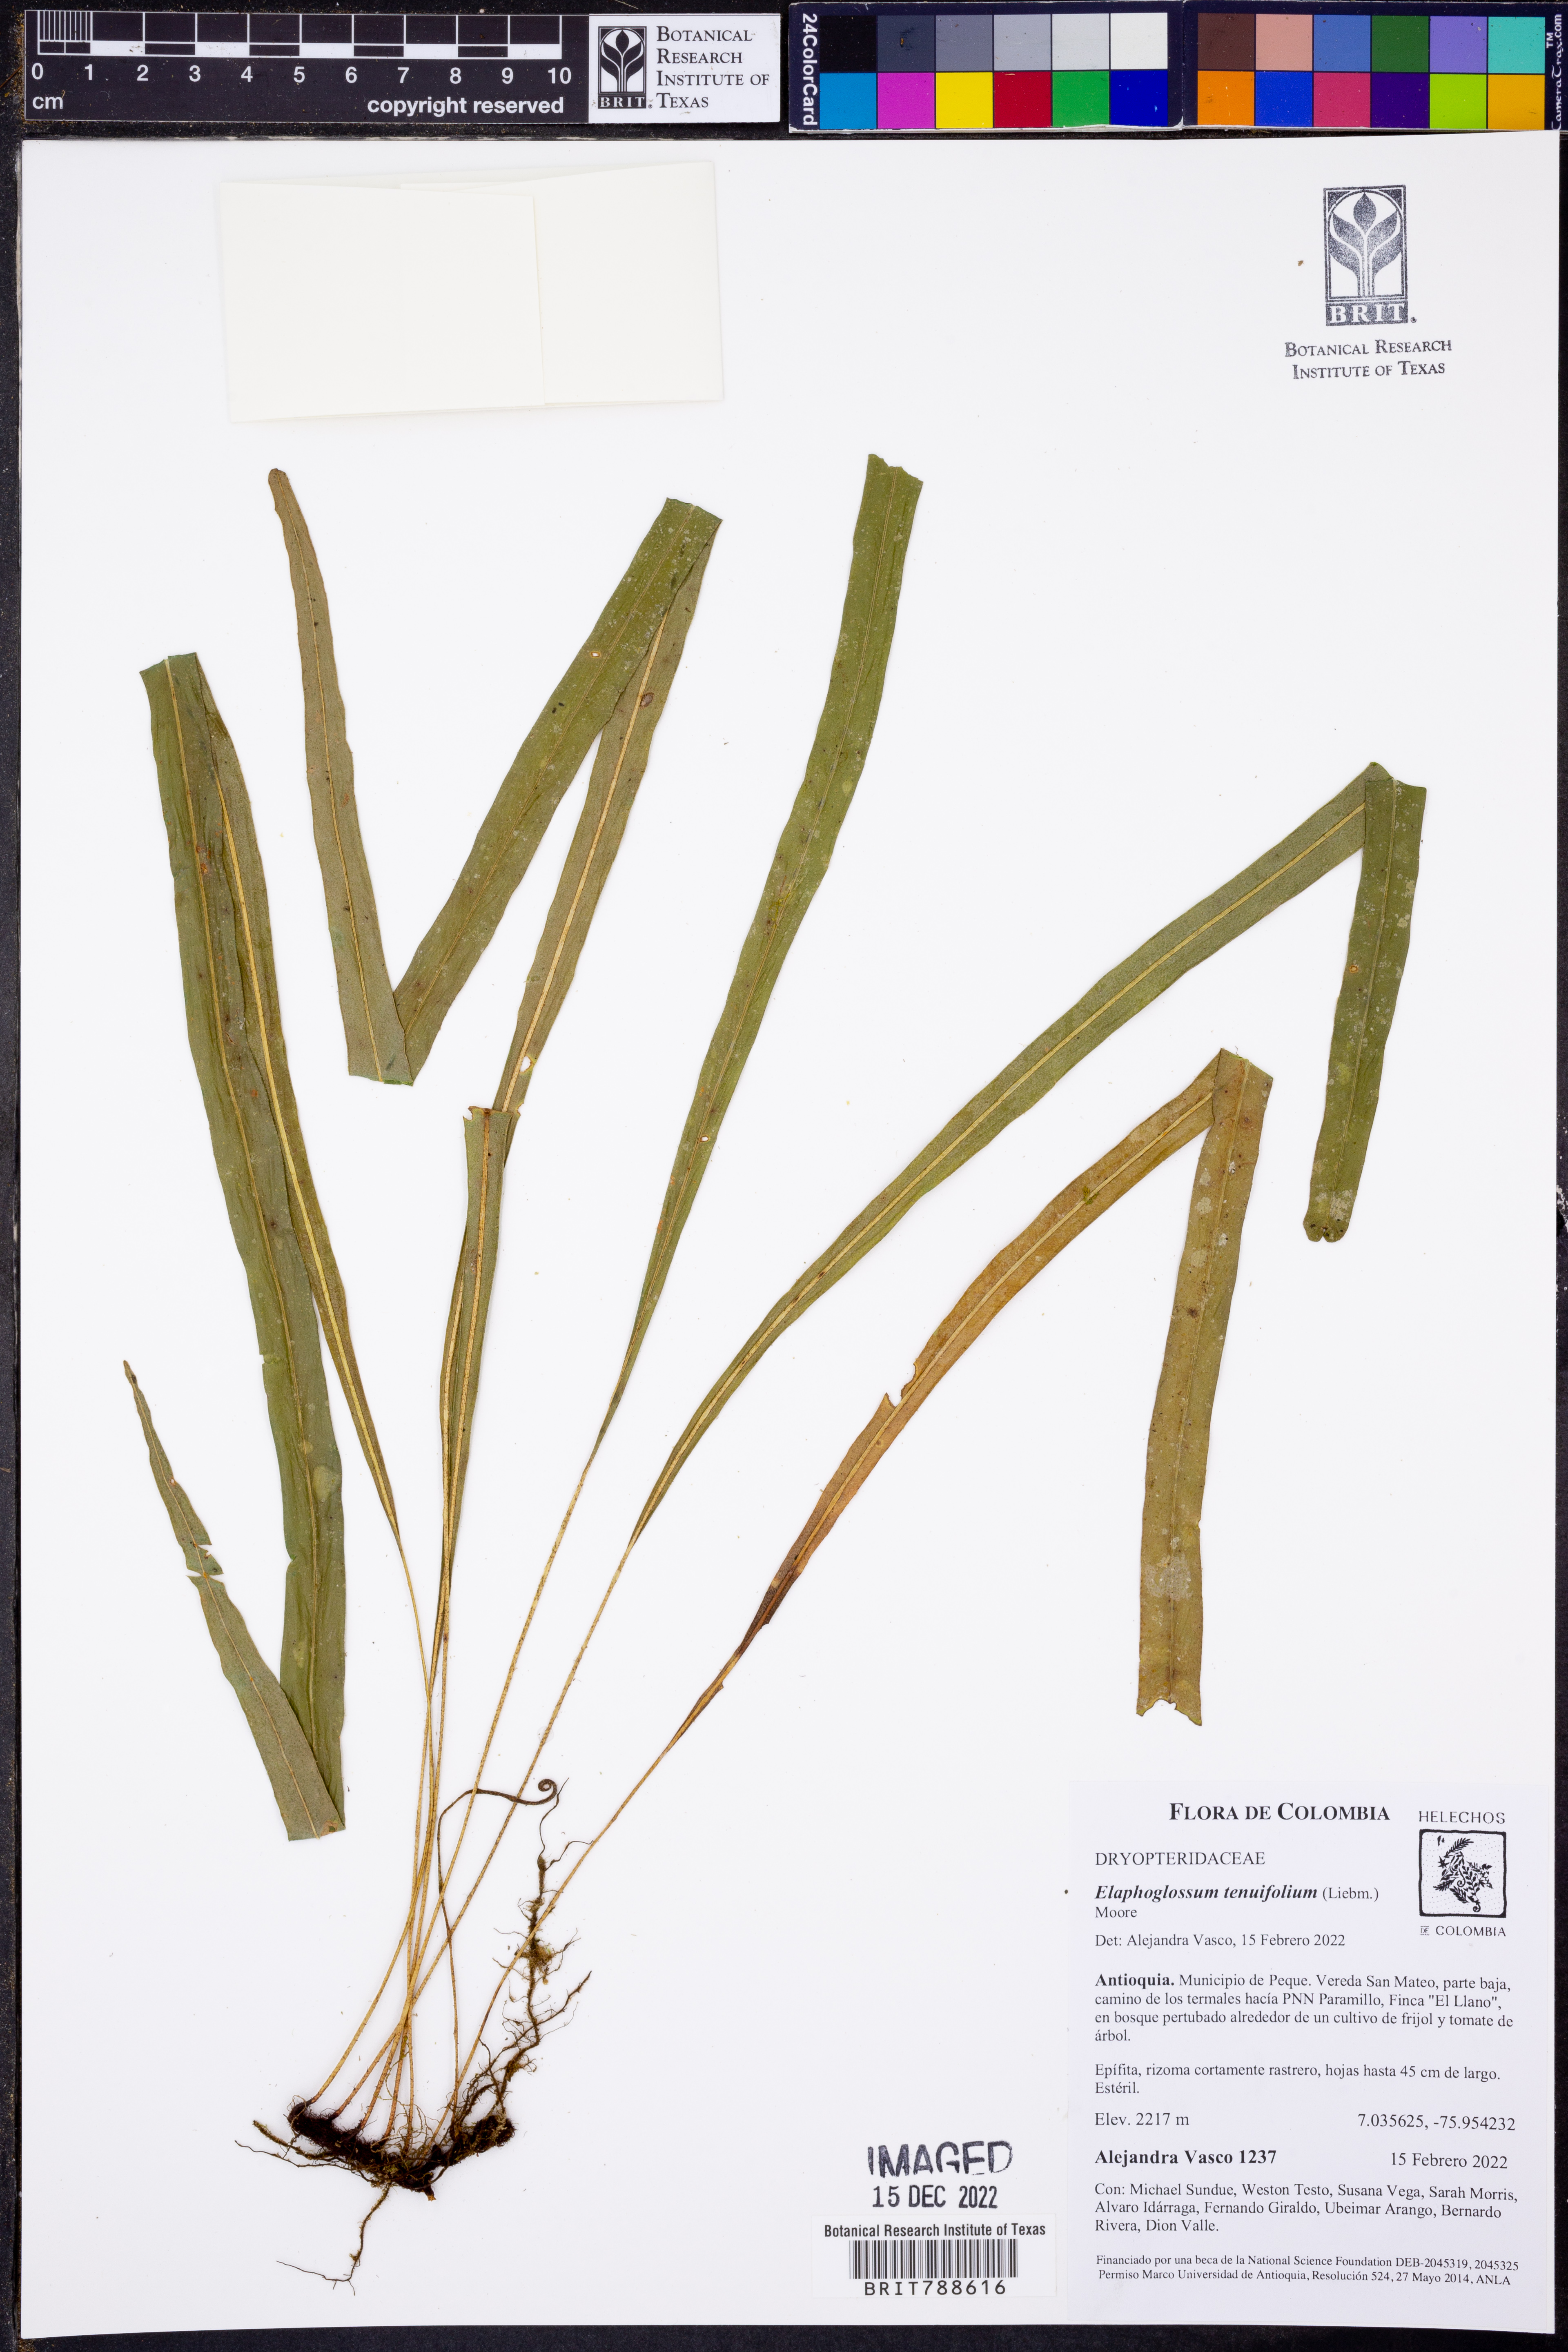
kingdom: Plantae
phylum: Tracheophyta
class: Polypodiopsida
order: Polypodiales
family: Dryopteridaceae
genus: Elaphoglossum
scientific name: Elaphoglossum tenuifolium
